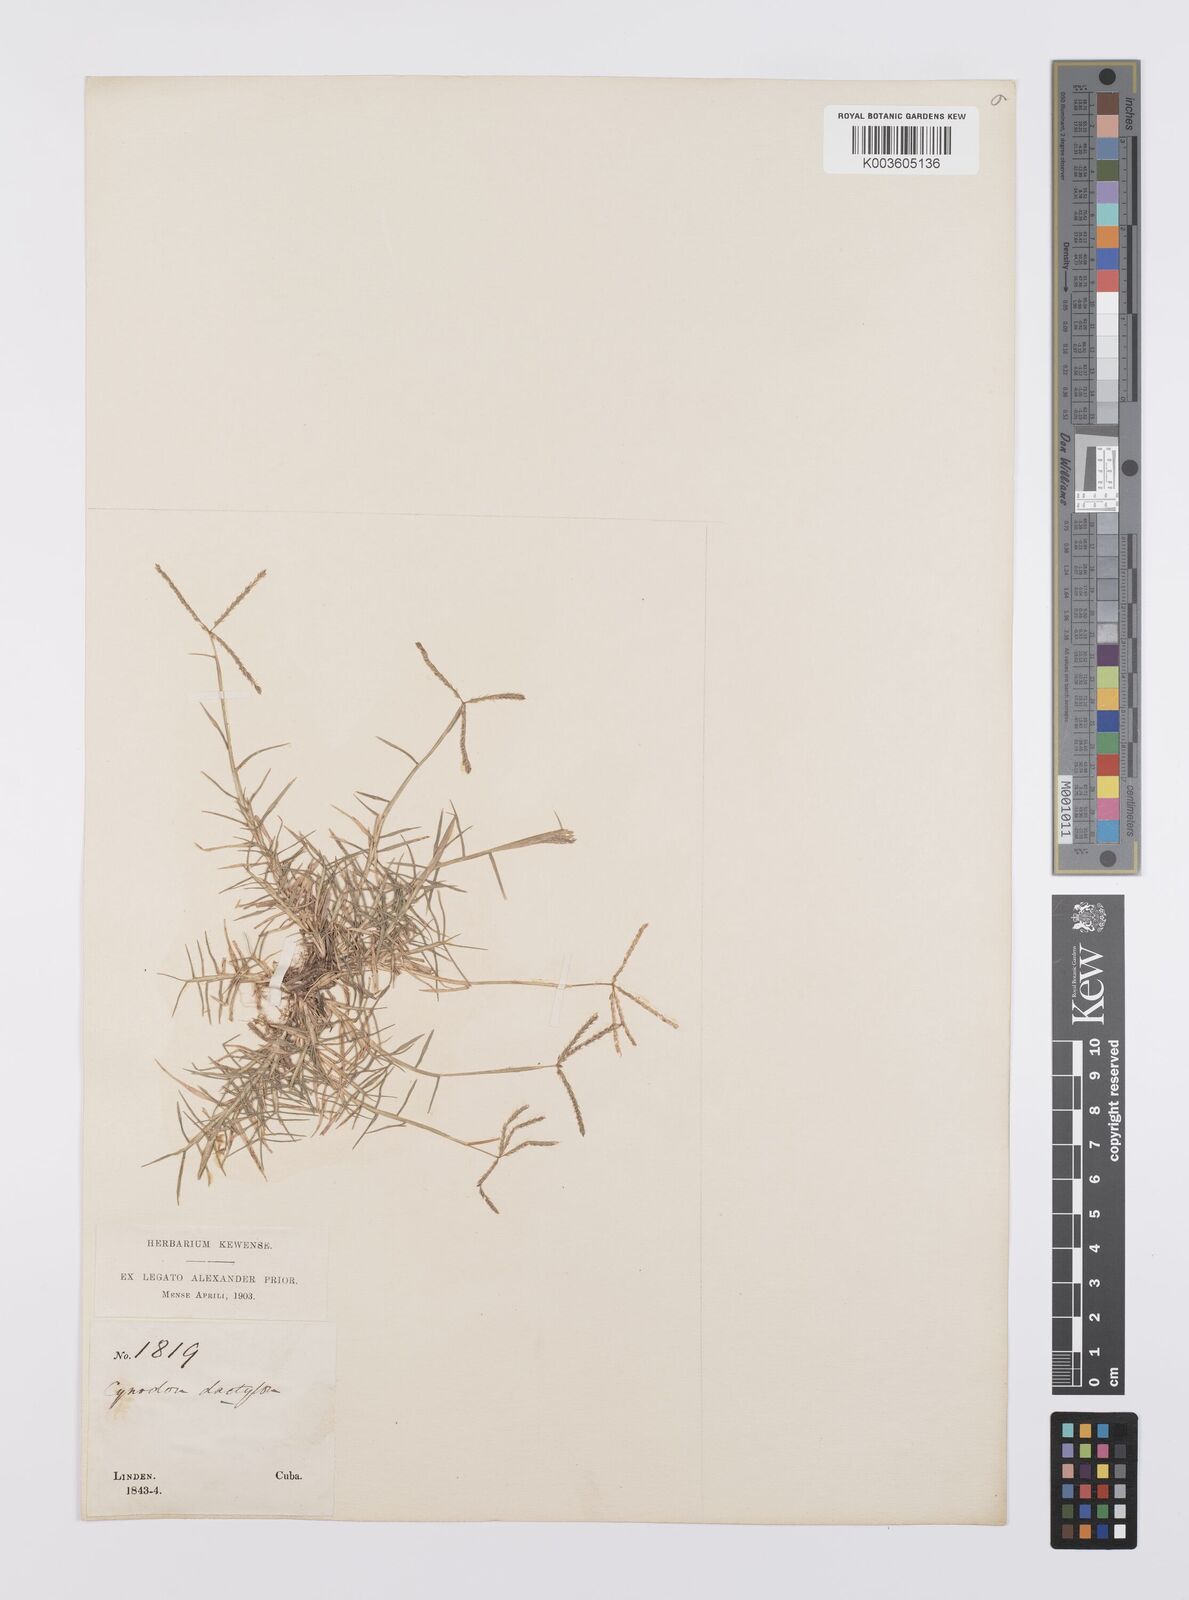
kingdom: Plantae
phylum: Tracheophyta
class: Liliopsida
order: Poales
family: Poaceae
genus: Cynodon
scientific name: Cynodon dactylon
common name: Bermuda grass
